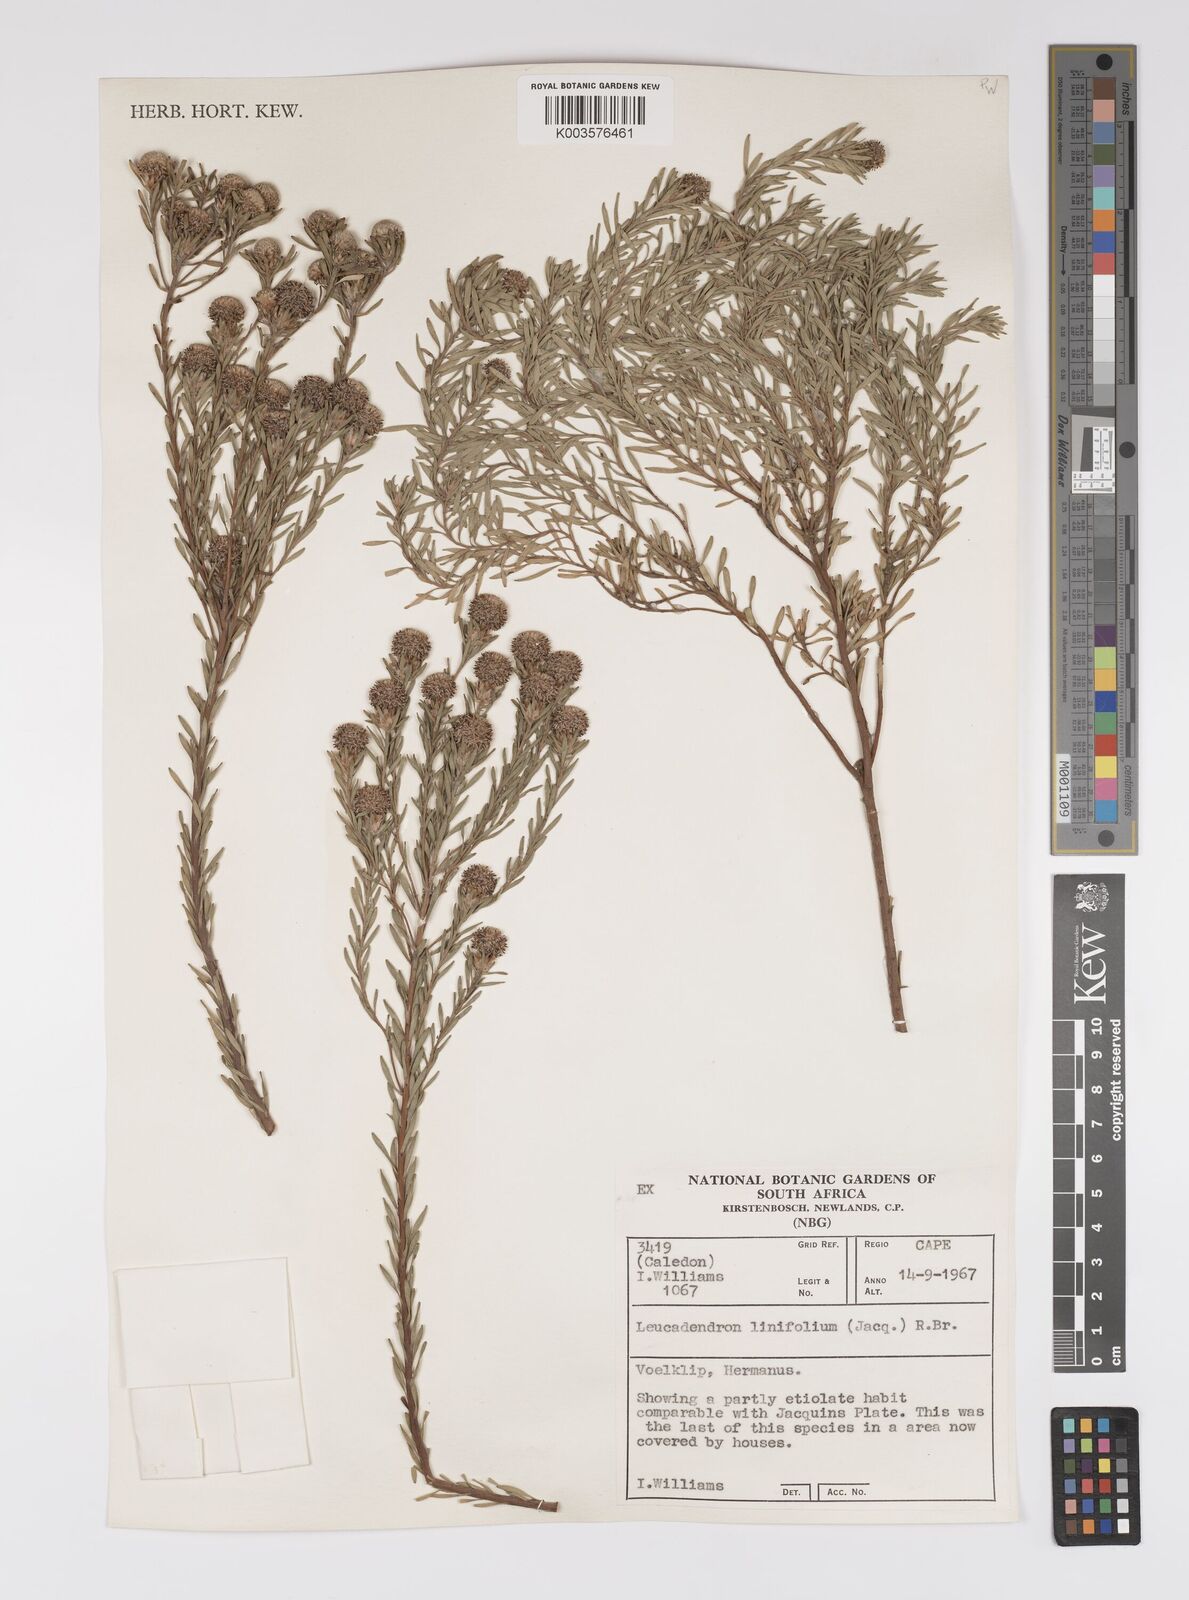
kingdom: Plantae
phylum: Tracheophyta
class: Magnoliopsida
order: Proteales
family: Proteaceae
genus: Leucadendron
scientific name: Leucadendron linifolium
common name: Line-leaf conebush
